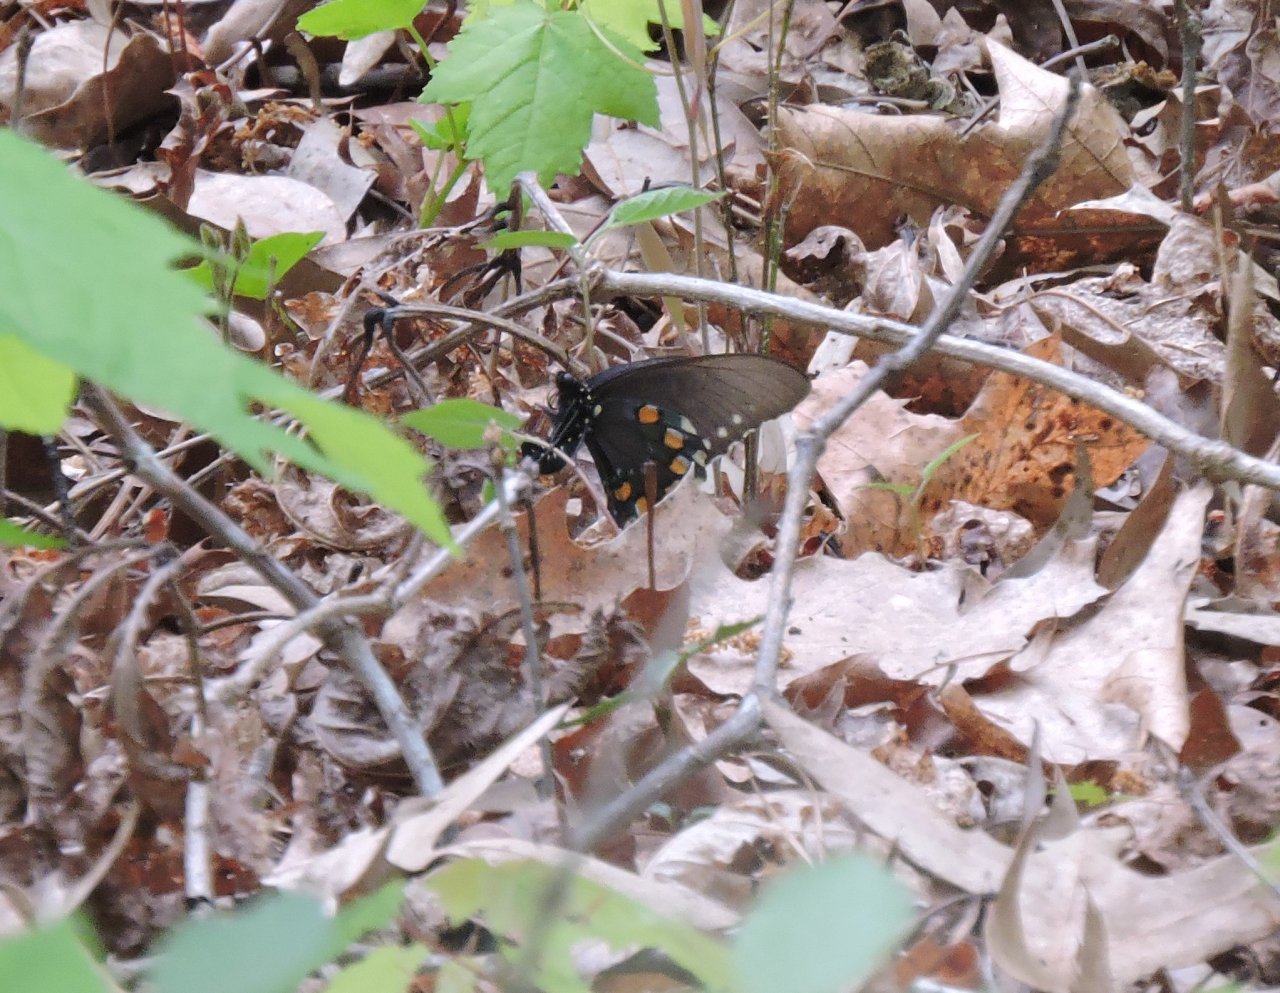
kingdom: Animalia
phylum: Arthropoda
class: Insecta
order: Lepidoptera
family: Papilionidae
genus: Battus
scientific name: Battus philenor
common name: Pipevine Swallowtail
